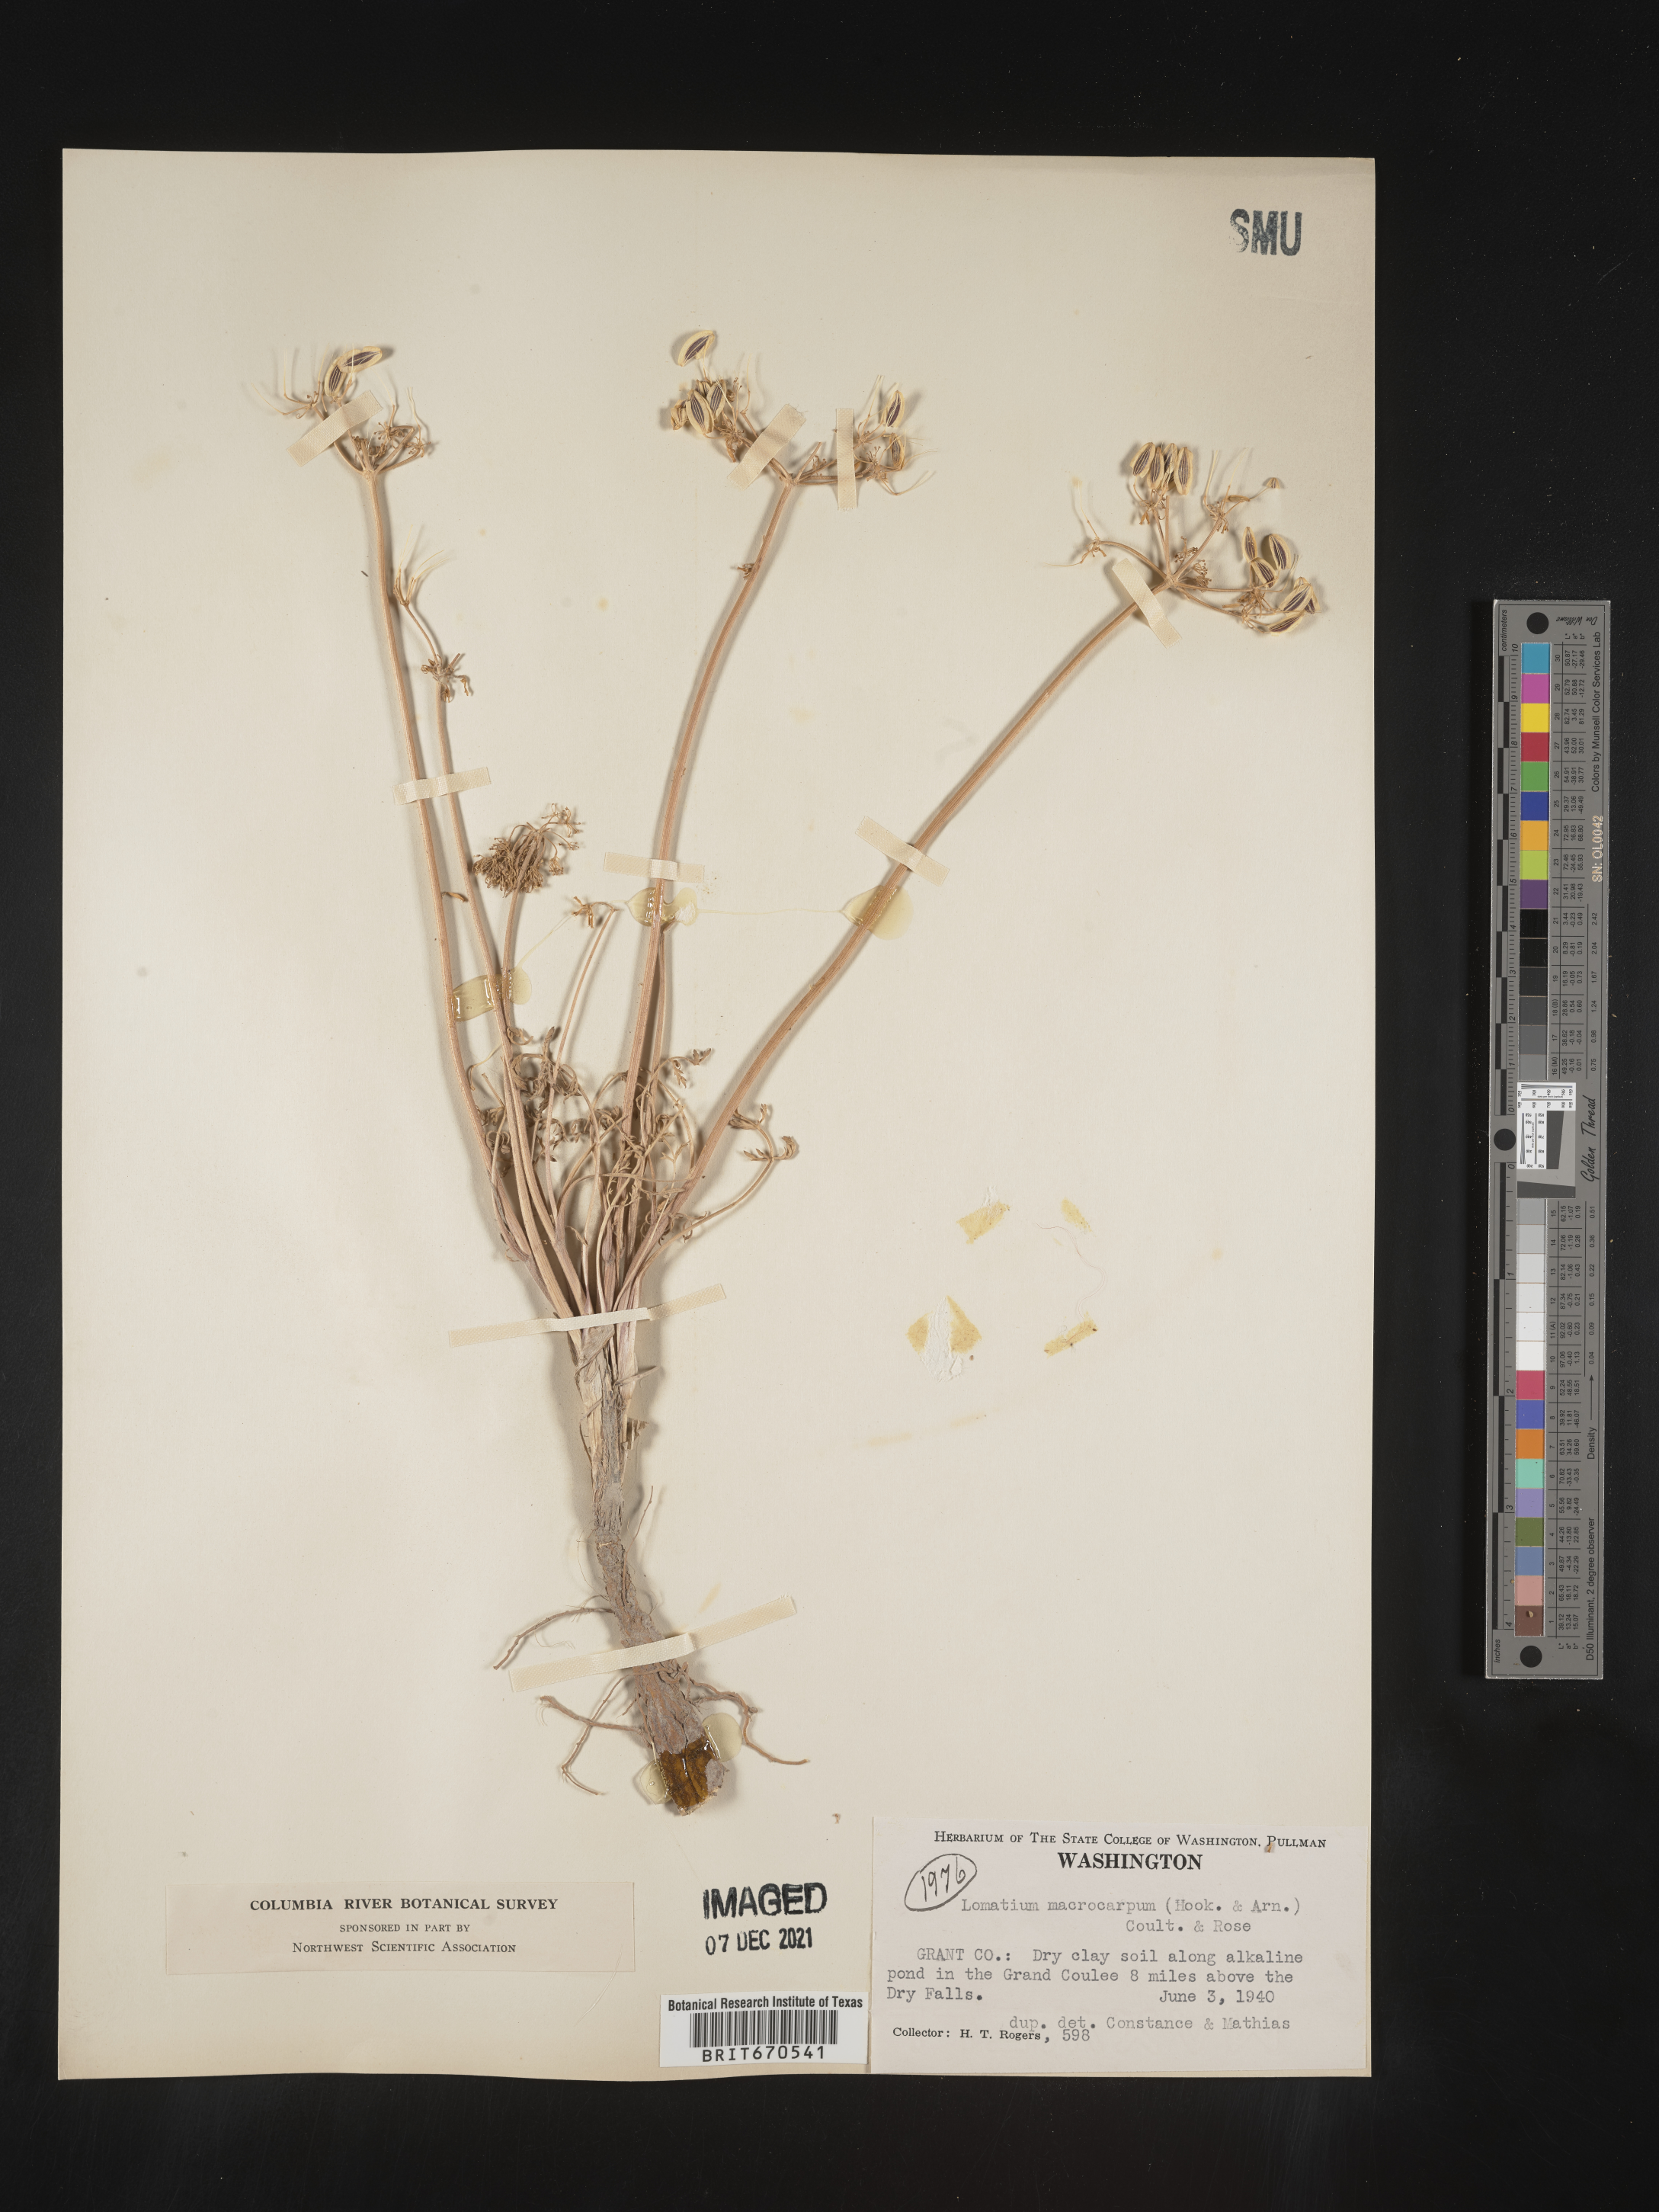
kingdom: Plantae
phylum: Tracheophyta
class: Magnoliopsida
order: Apiales
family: Apiaceae
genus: Lomatium
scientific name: Lomatium macrocarpum
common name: Big-seed biscuitroot
